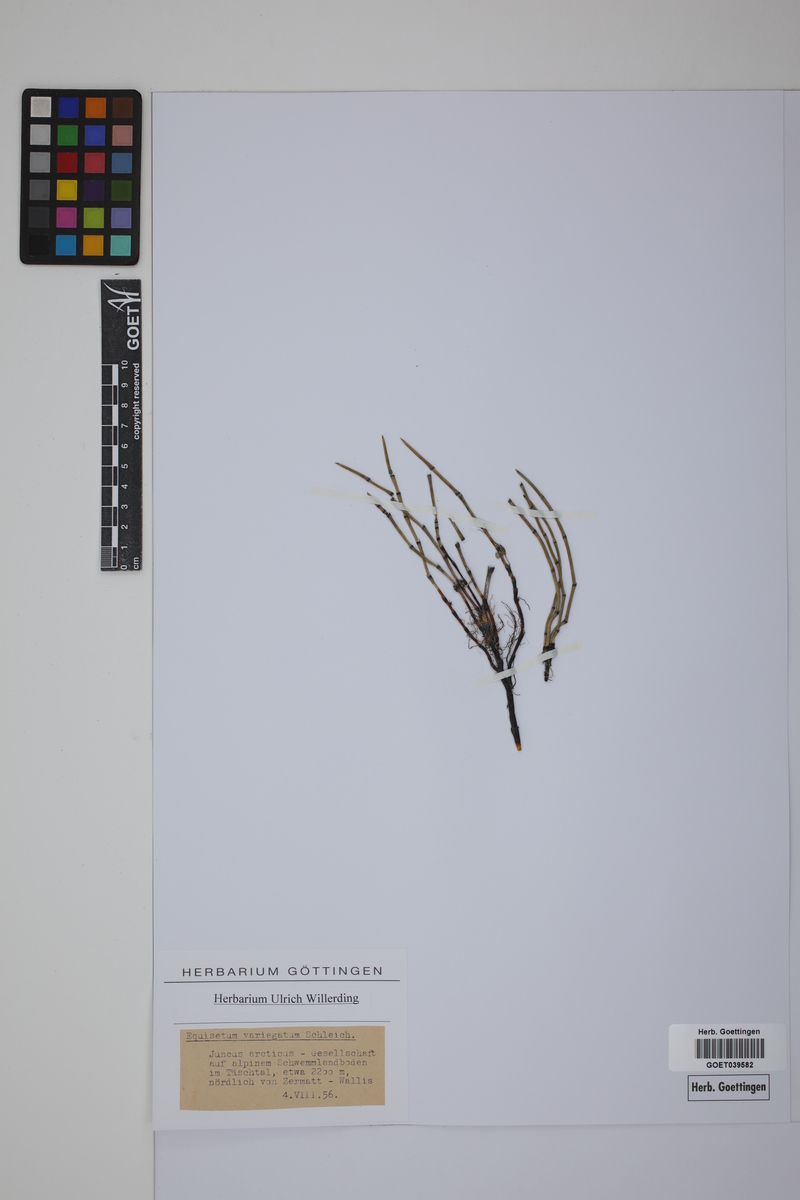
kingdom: Plantae
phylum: Tracheophyta
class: Polypodiopsida
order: Equisetales
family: Equisetaceae
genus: Equisetum
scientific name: Equisetum variegatum
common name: Variegated horsetail
